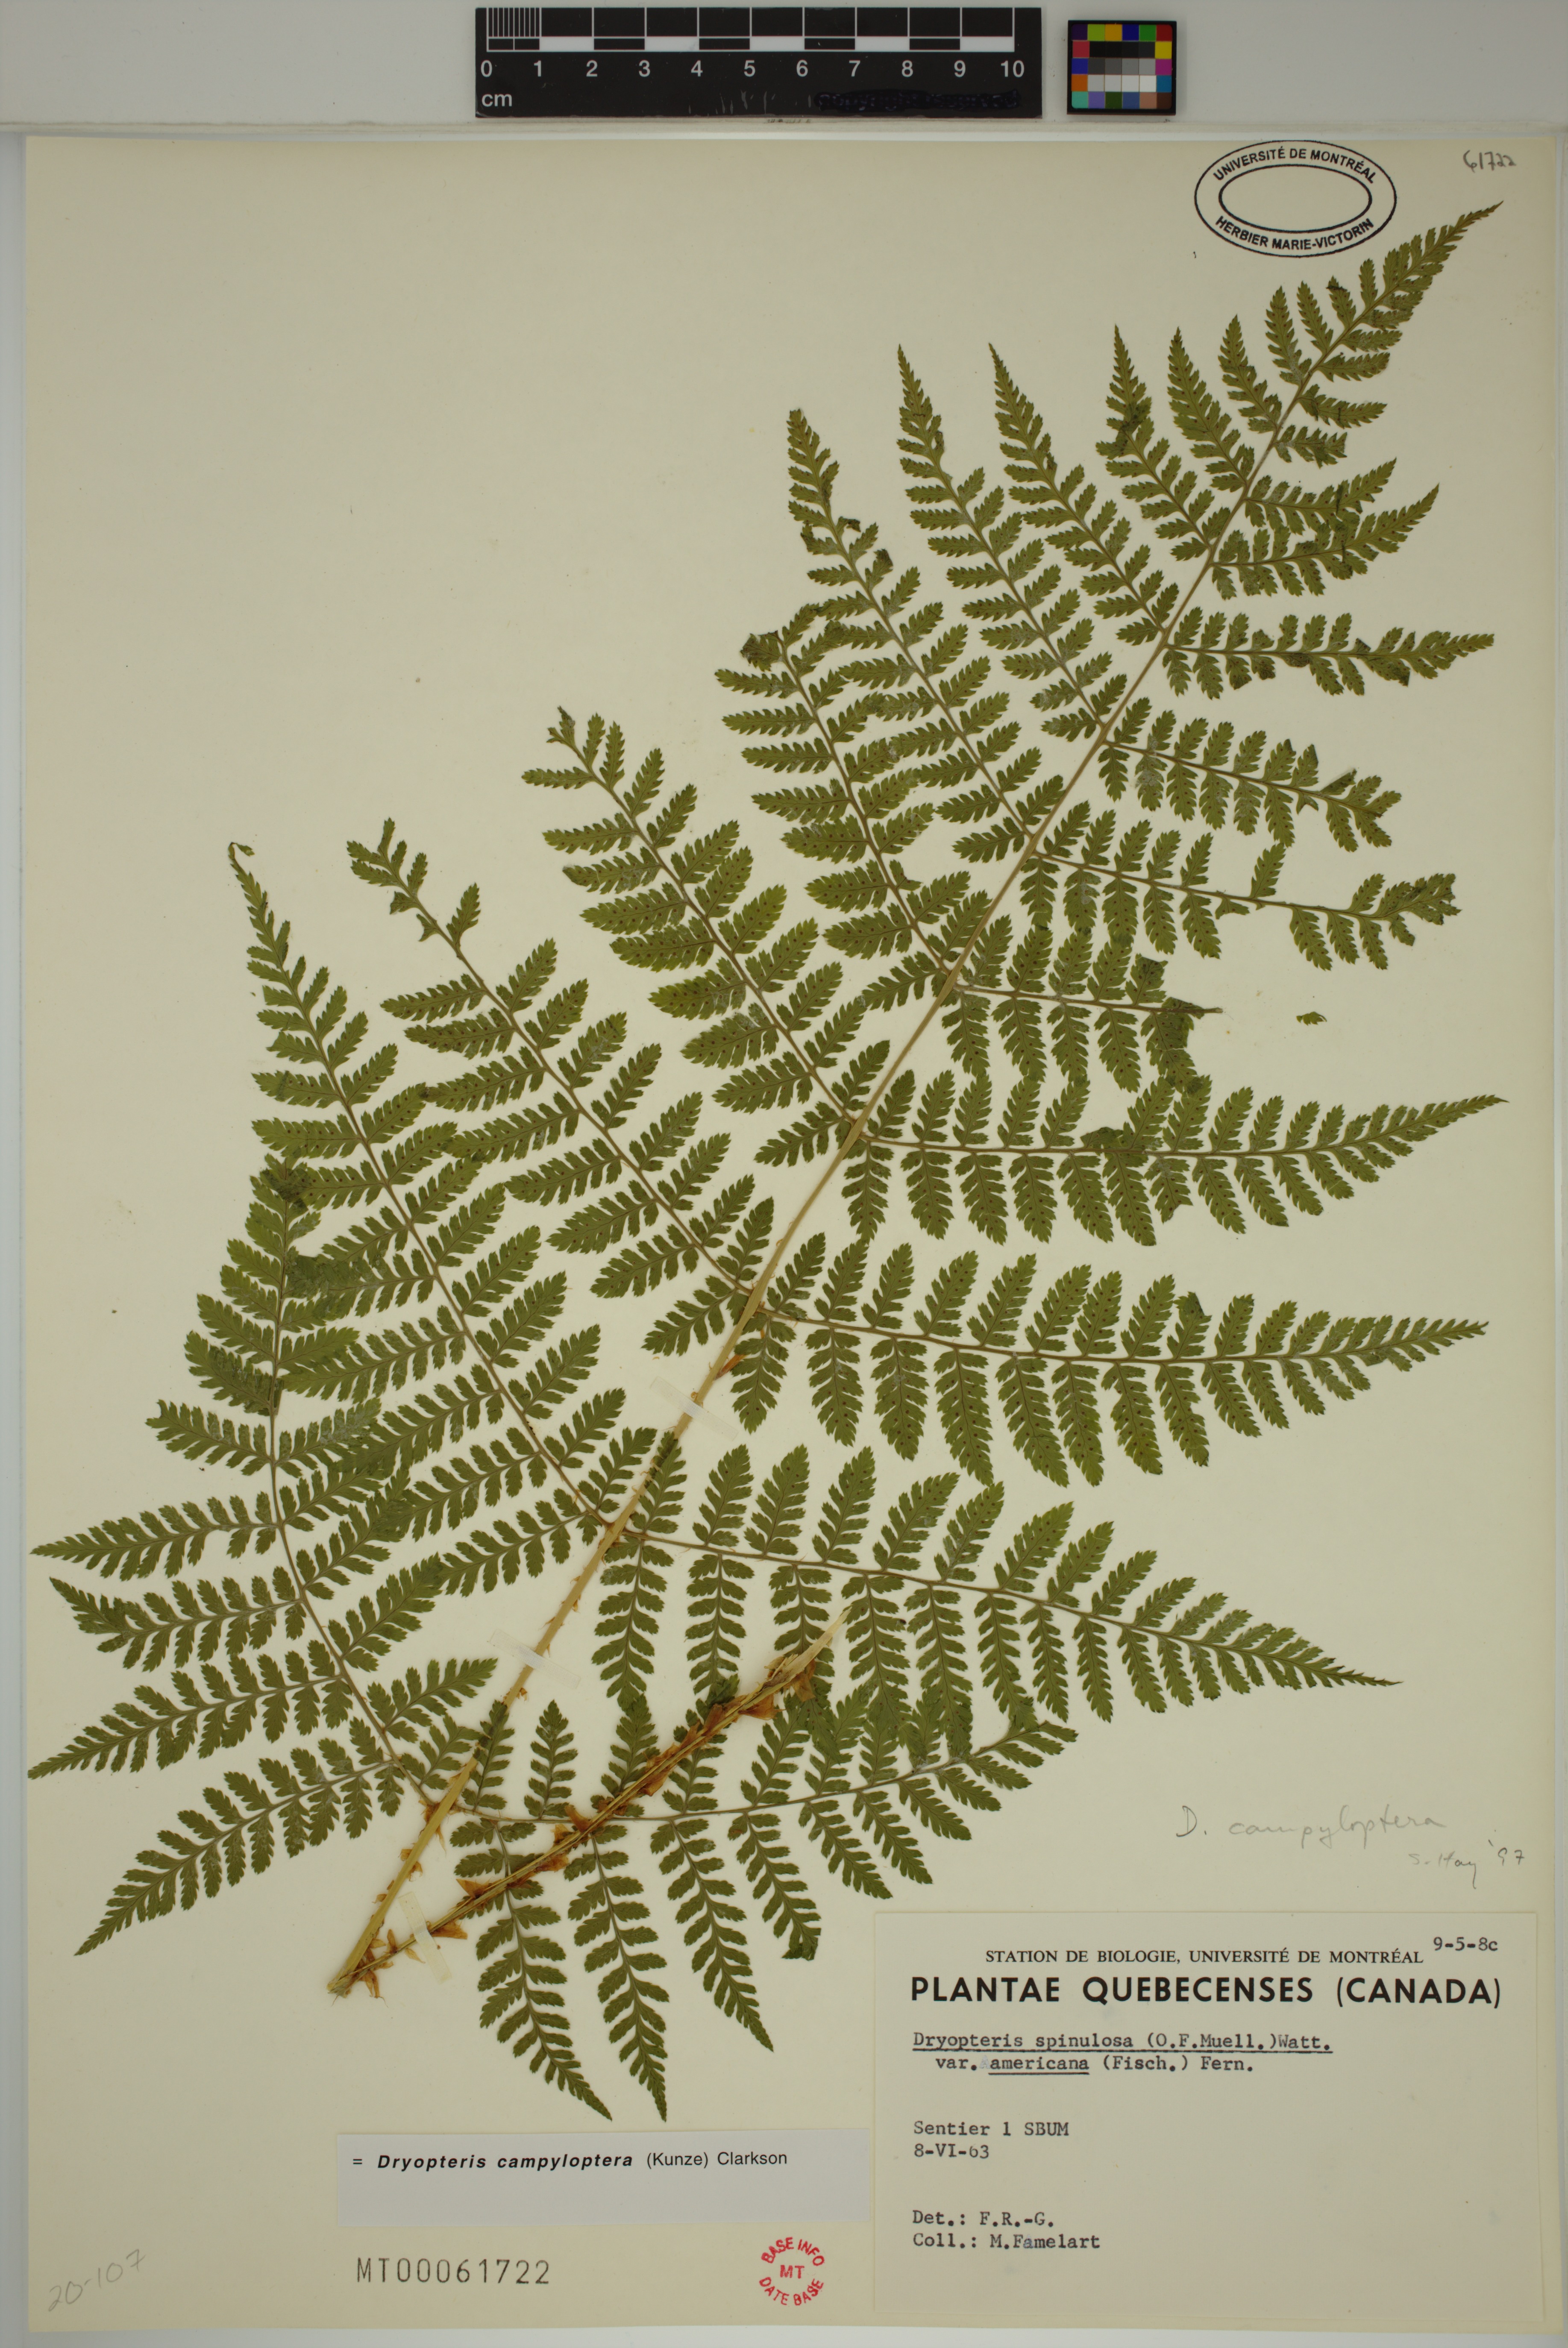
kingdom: Plantae
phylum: Tracheophyta
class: Polypodiopsida
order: Polypodiales
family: Dryopteridaceae
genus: Dryopteris
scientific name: Dryopteris campyloptera
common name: Mountain wood fern
